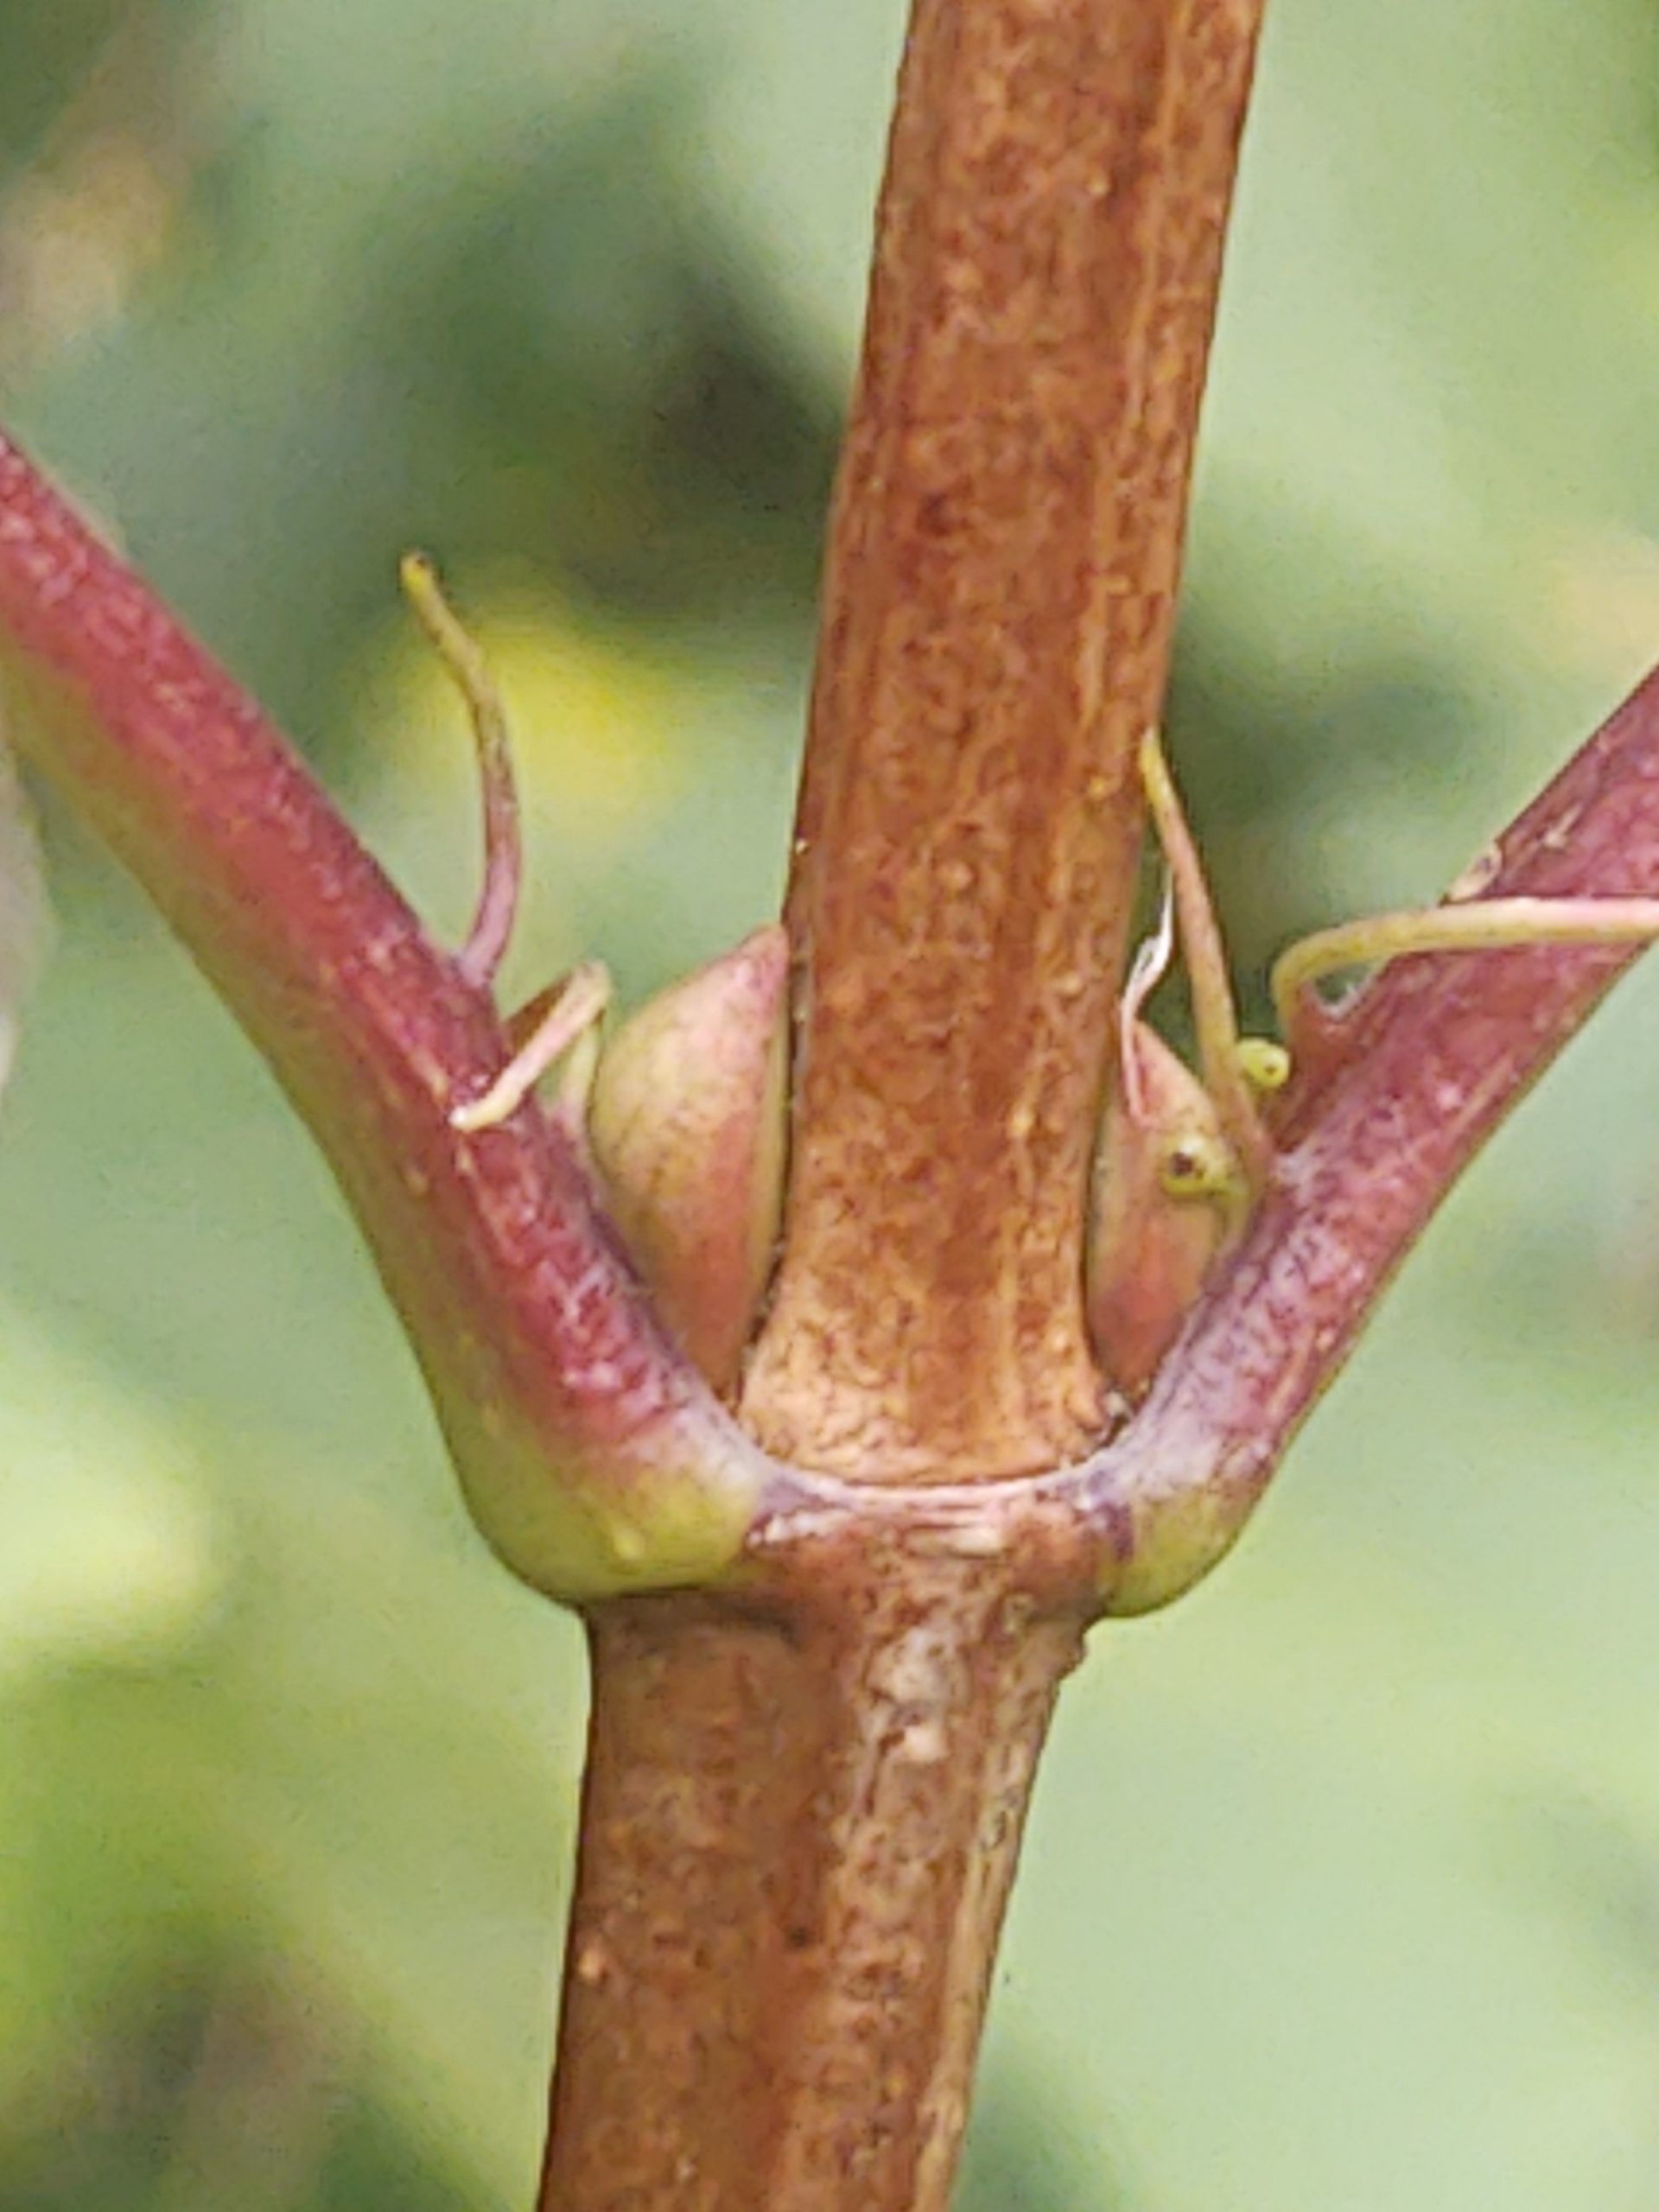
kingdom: Plantae
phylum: Tracheophyta
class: Magnoliopsida
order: Dipsacales
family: Viburnaceae
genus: Viburnum
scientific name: Viburnum opulus
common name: Kvalkved
